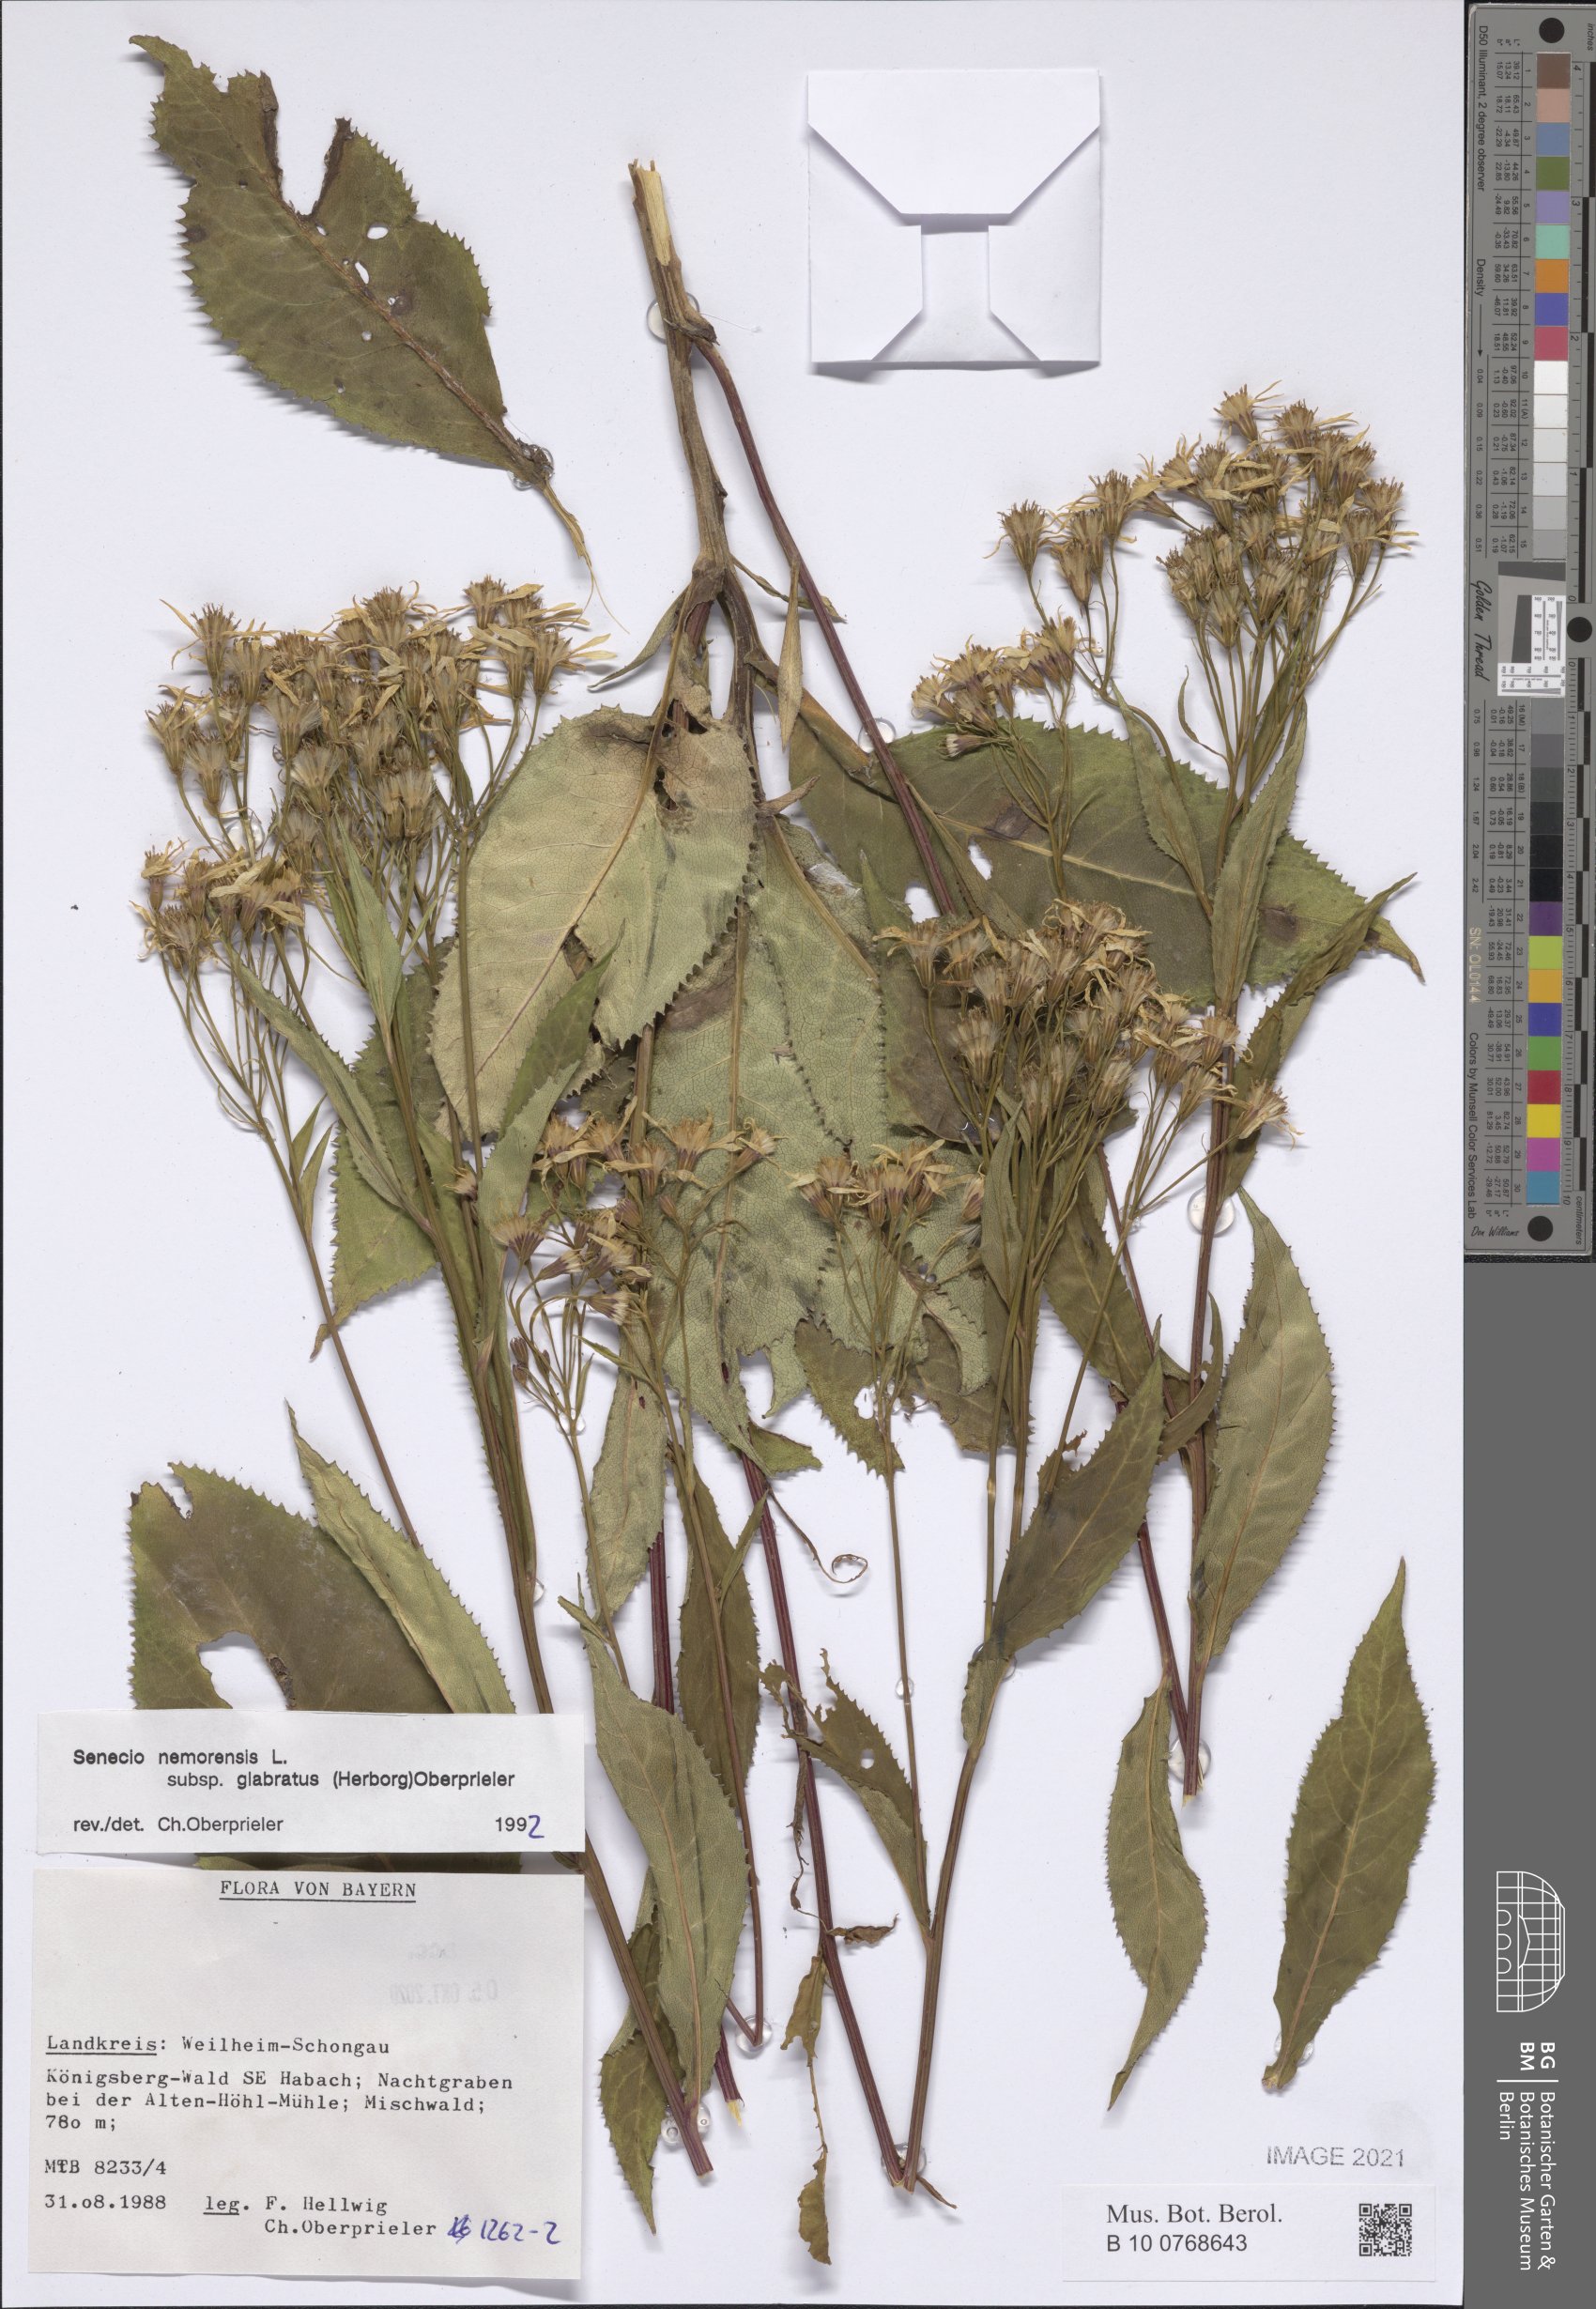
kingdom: Plantae
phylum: Tracheophyta
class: Magnoliopsida
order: Asterales
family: Asteraceae
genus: Senecio
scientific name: Senecio germanicus
